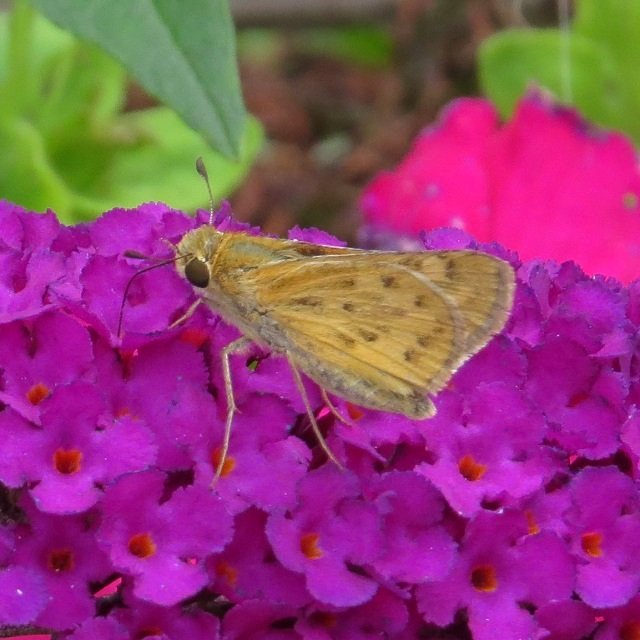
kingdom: Animalia
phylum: Arthropoda
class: Insecta
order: Lepidoptera
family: Hesperiidae
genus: Hylephila
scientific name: Hylephila phyleus
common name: Fiery Skipper
